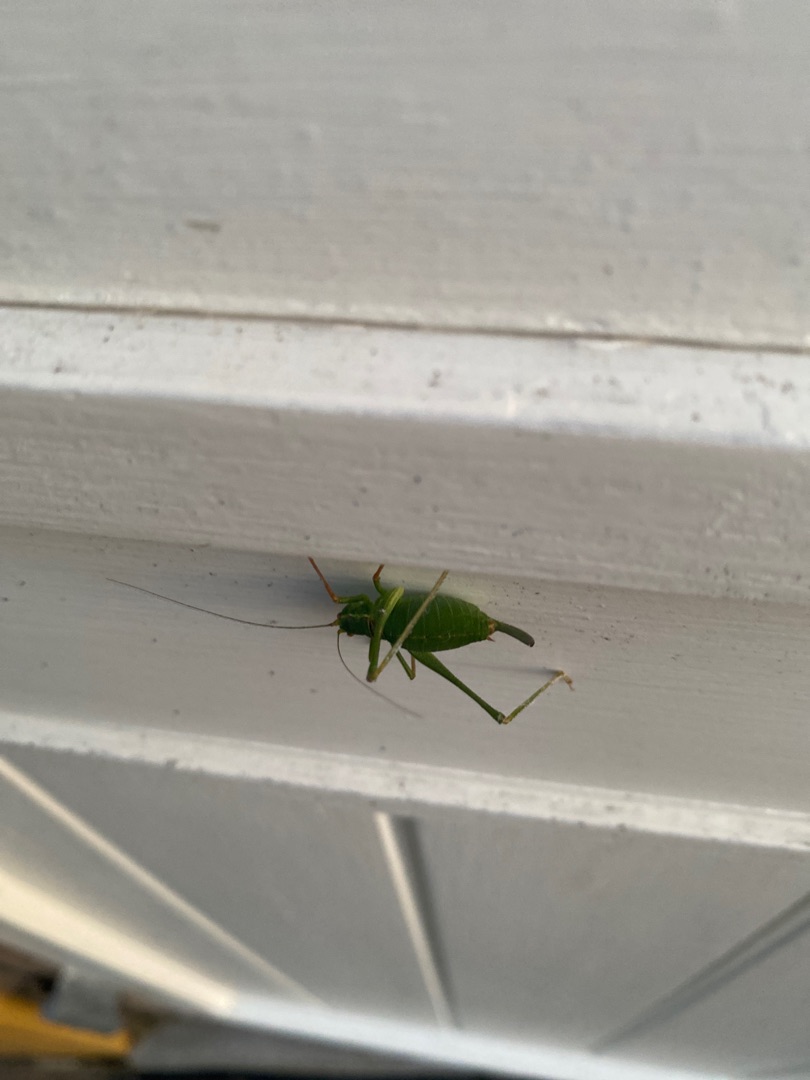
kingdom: Animalia
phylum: Arthropoda
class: Insecta
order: Orthoptera
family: Tettigoniidae
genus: Leptophyes
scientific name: Leptophyes punctatissima
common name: Krumknivgræshoppe
